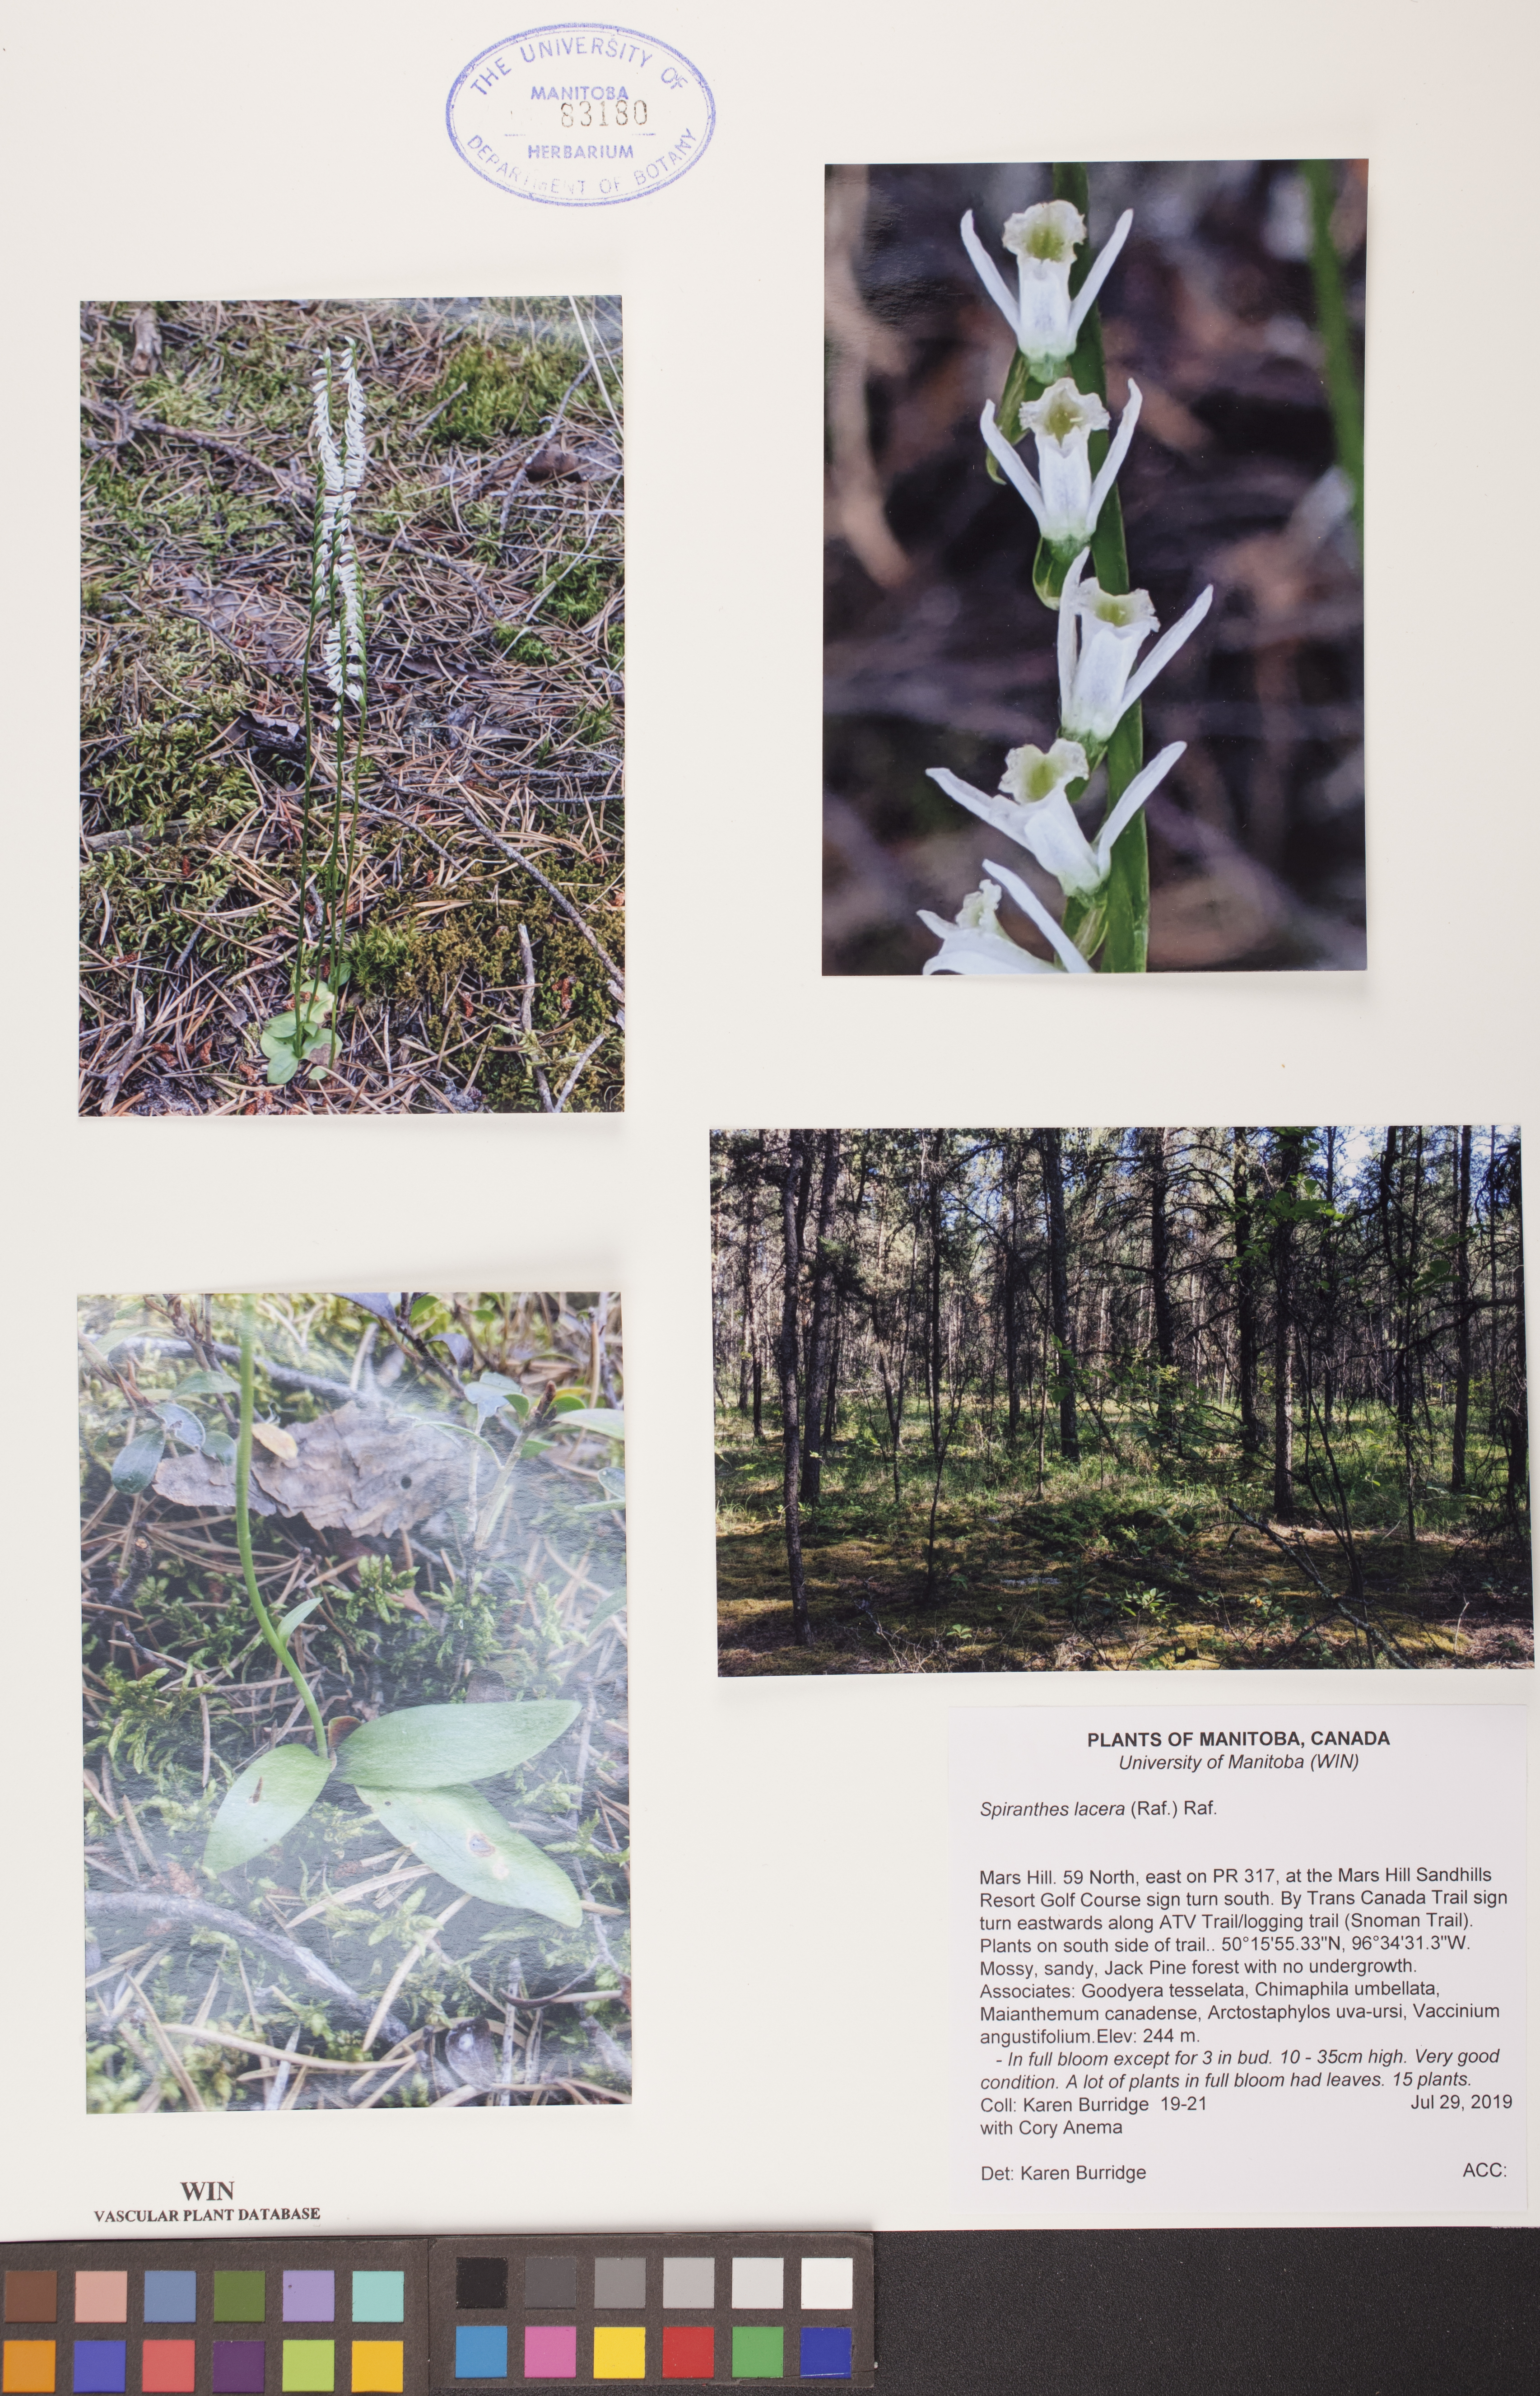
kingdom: Plantae
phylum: Tracheophyta
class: Liliopsida
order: Asparagales
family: Orchidaceae
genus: Spiranthes
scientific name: Spiranthes lacera
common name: Northern slender ladies'-tresses
